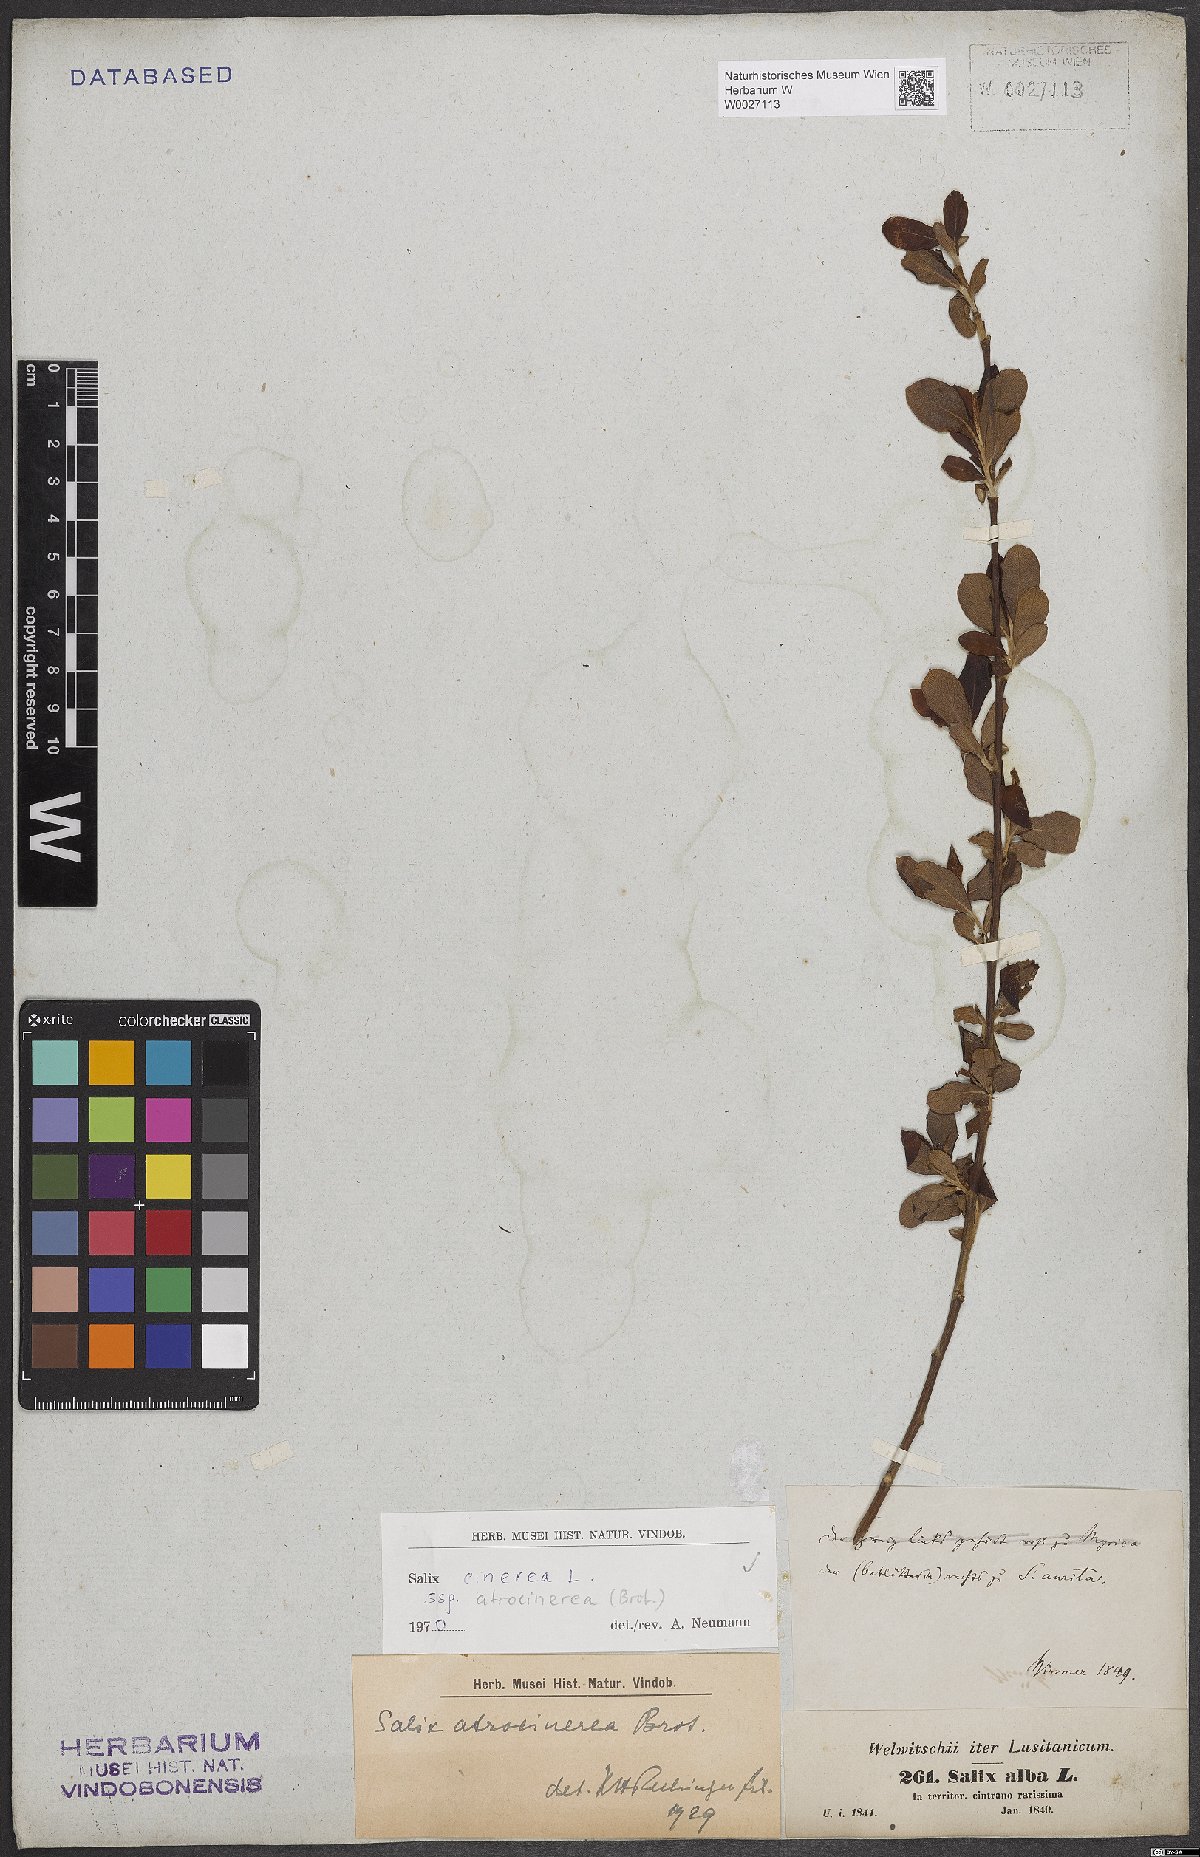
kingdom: Plantae
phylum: Tracheophyta
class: Magnoliopsida
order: Malpighiales
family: Salicaceae
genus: Salix
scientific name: Salix atrocinerea
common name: Rusty willow
